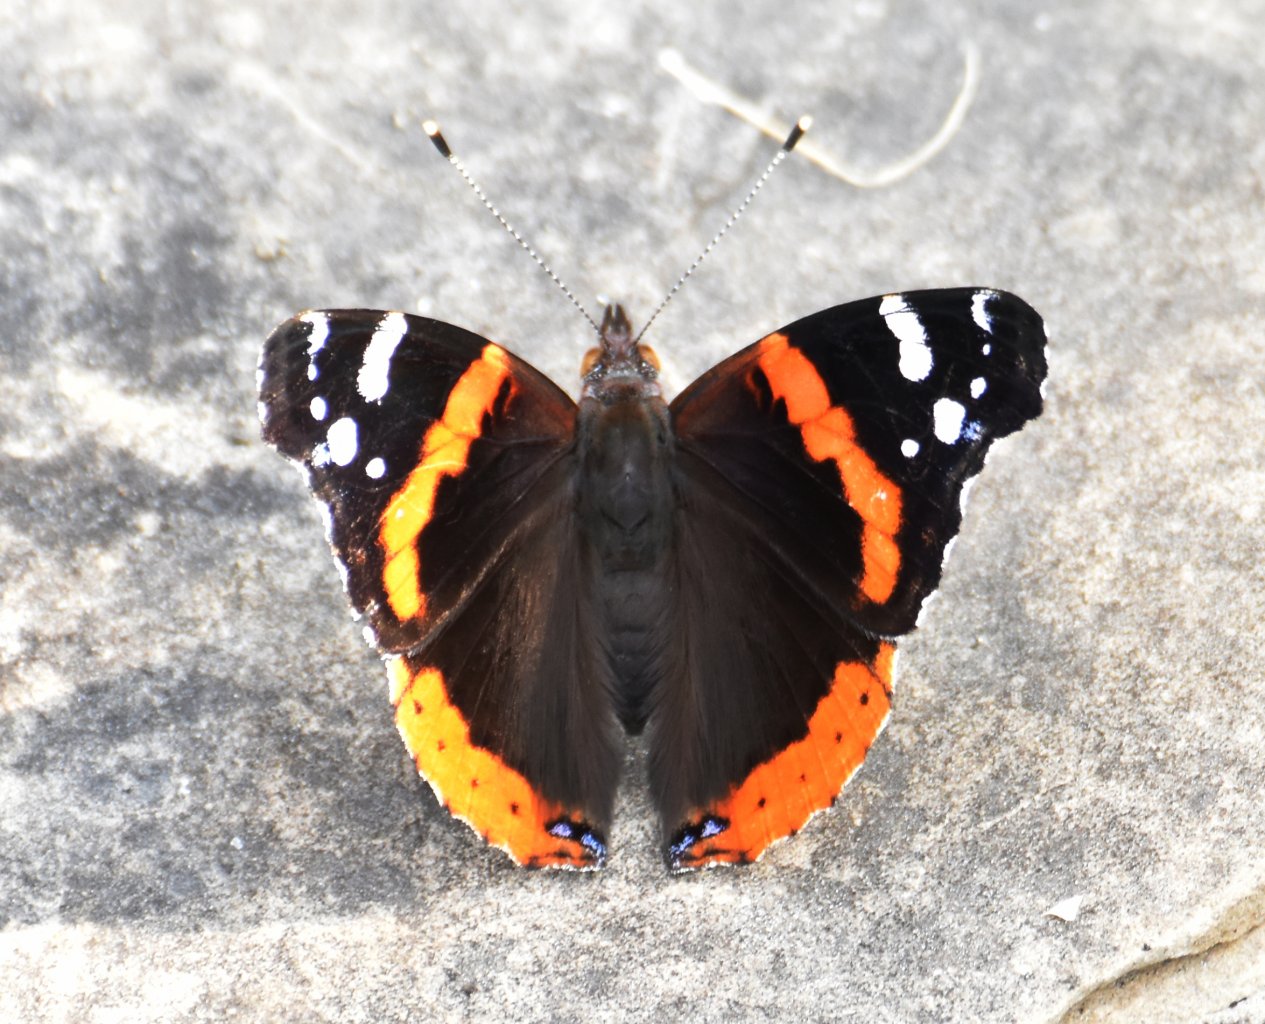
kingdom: Animalia
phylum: Arthropoda
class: Insecta
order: Lepidoptera
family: Nymphalidae
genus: Vanessa
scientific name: Vanessa atalanta
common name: Red Admiral
